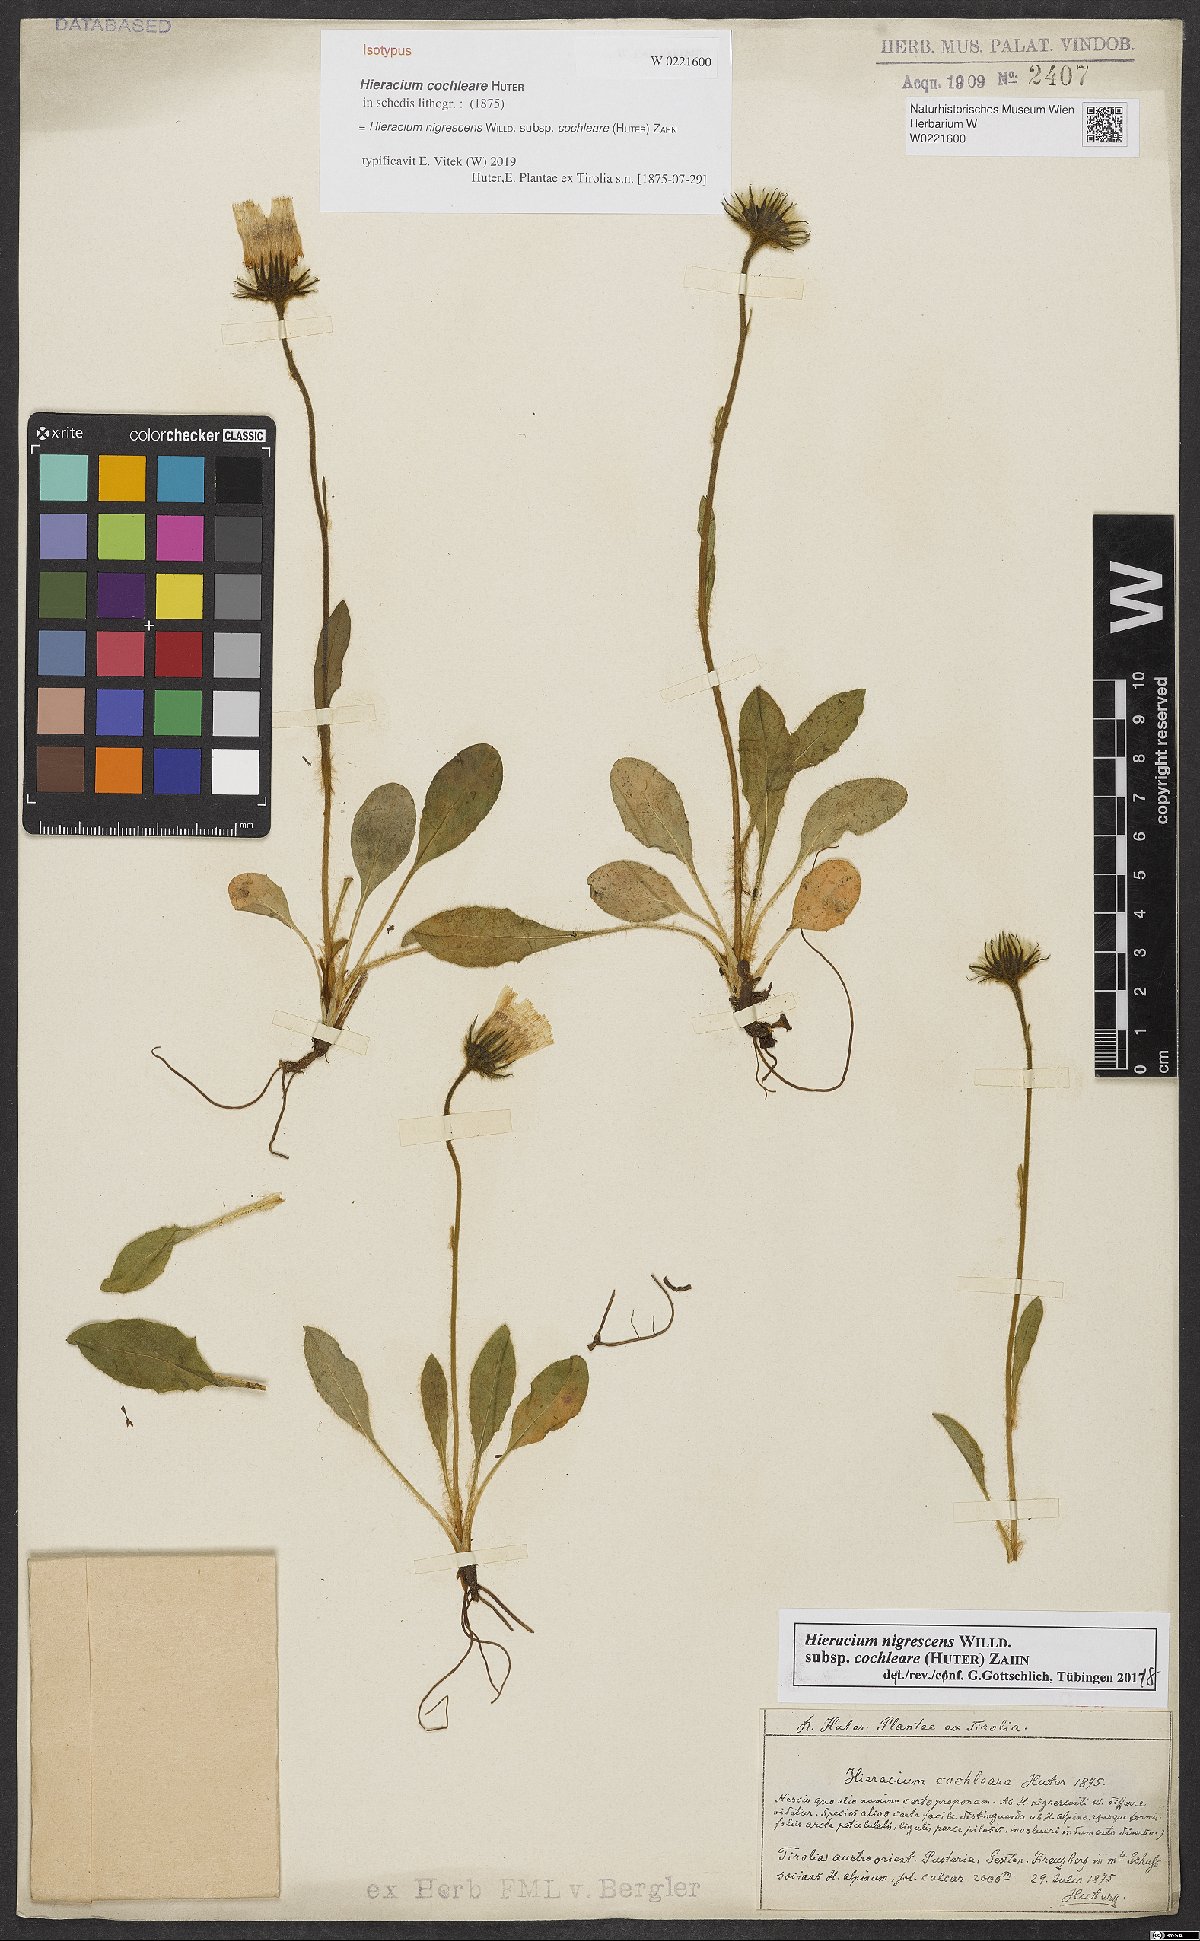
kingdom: Plantae
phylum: Tracheophyta
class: Magnoliopsida
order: Asterales
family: Asteraceae
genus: Hieracium
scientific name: Hieracium nigrescens
